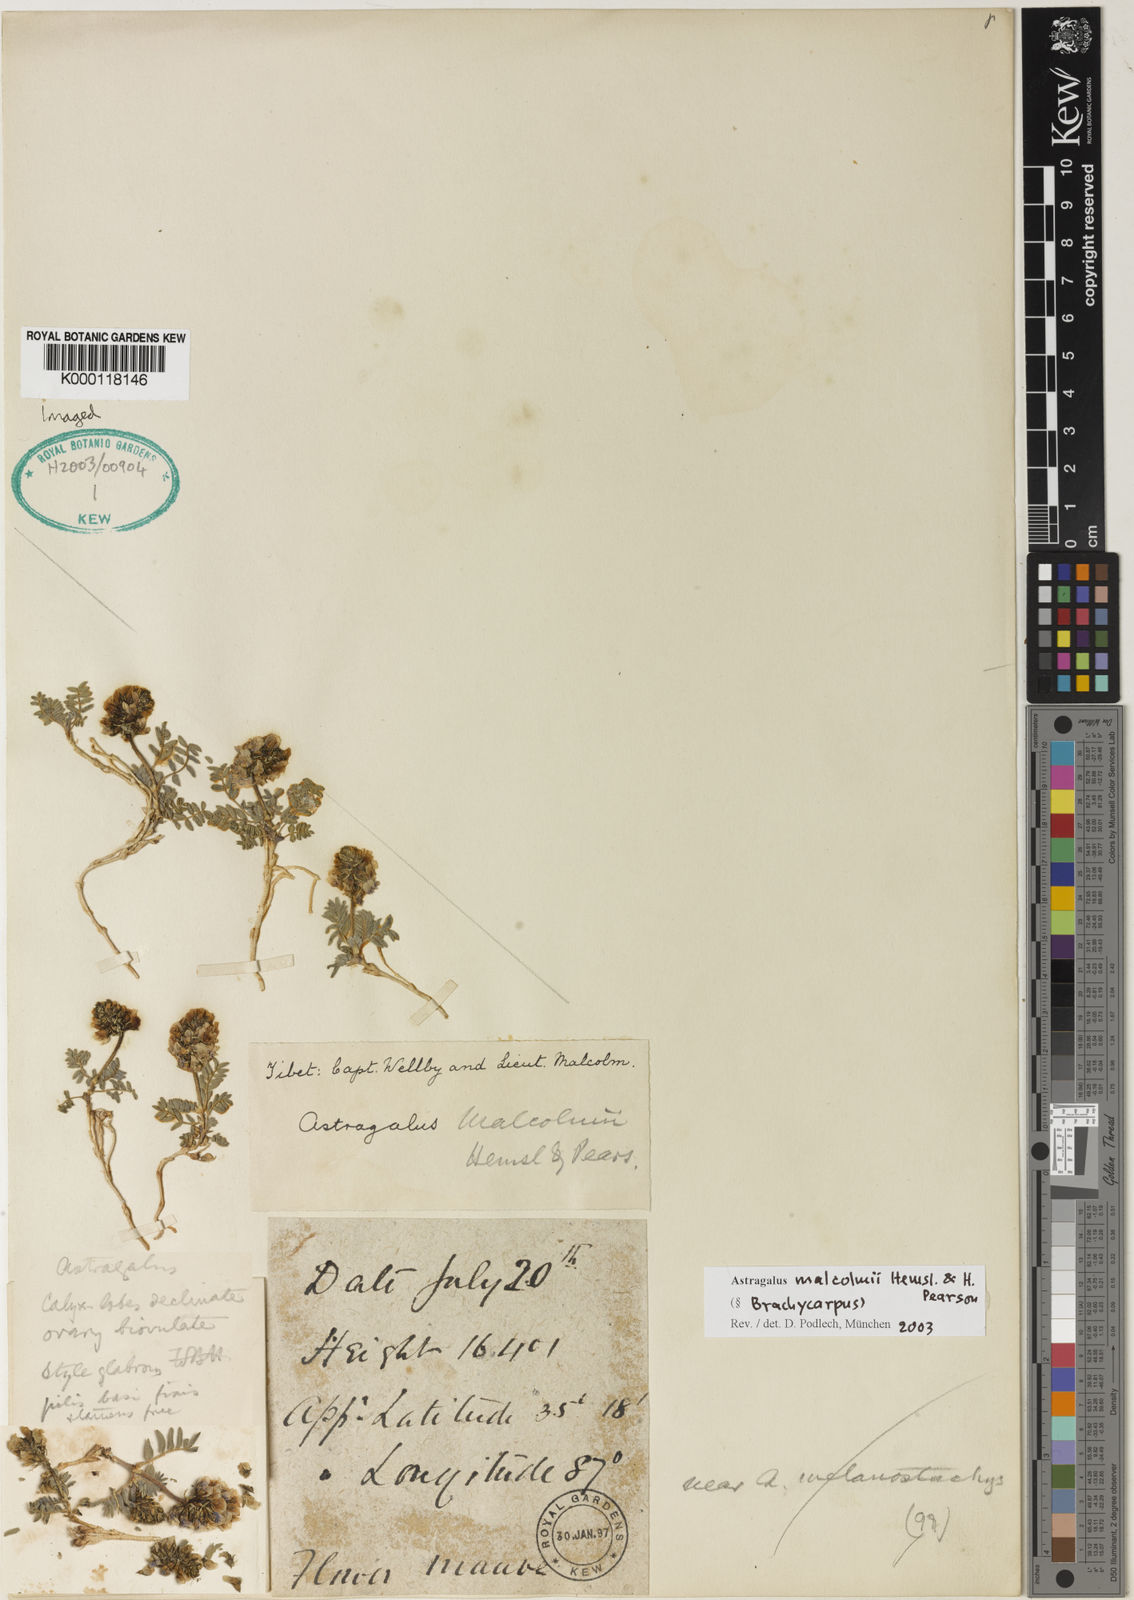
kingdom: Plantae
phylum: Tracheophyta
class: Magnoliopsida
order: Fabales
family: Fabaceae
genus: Astragalus
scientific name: Astragalus
